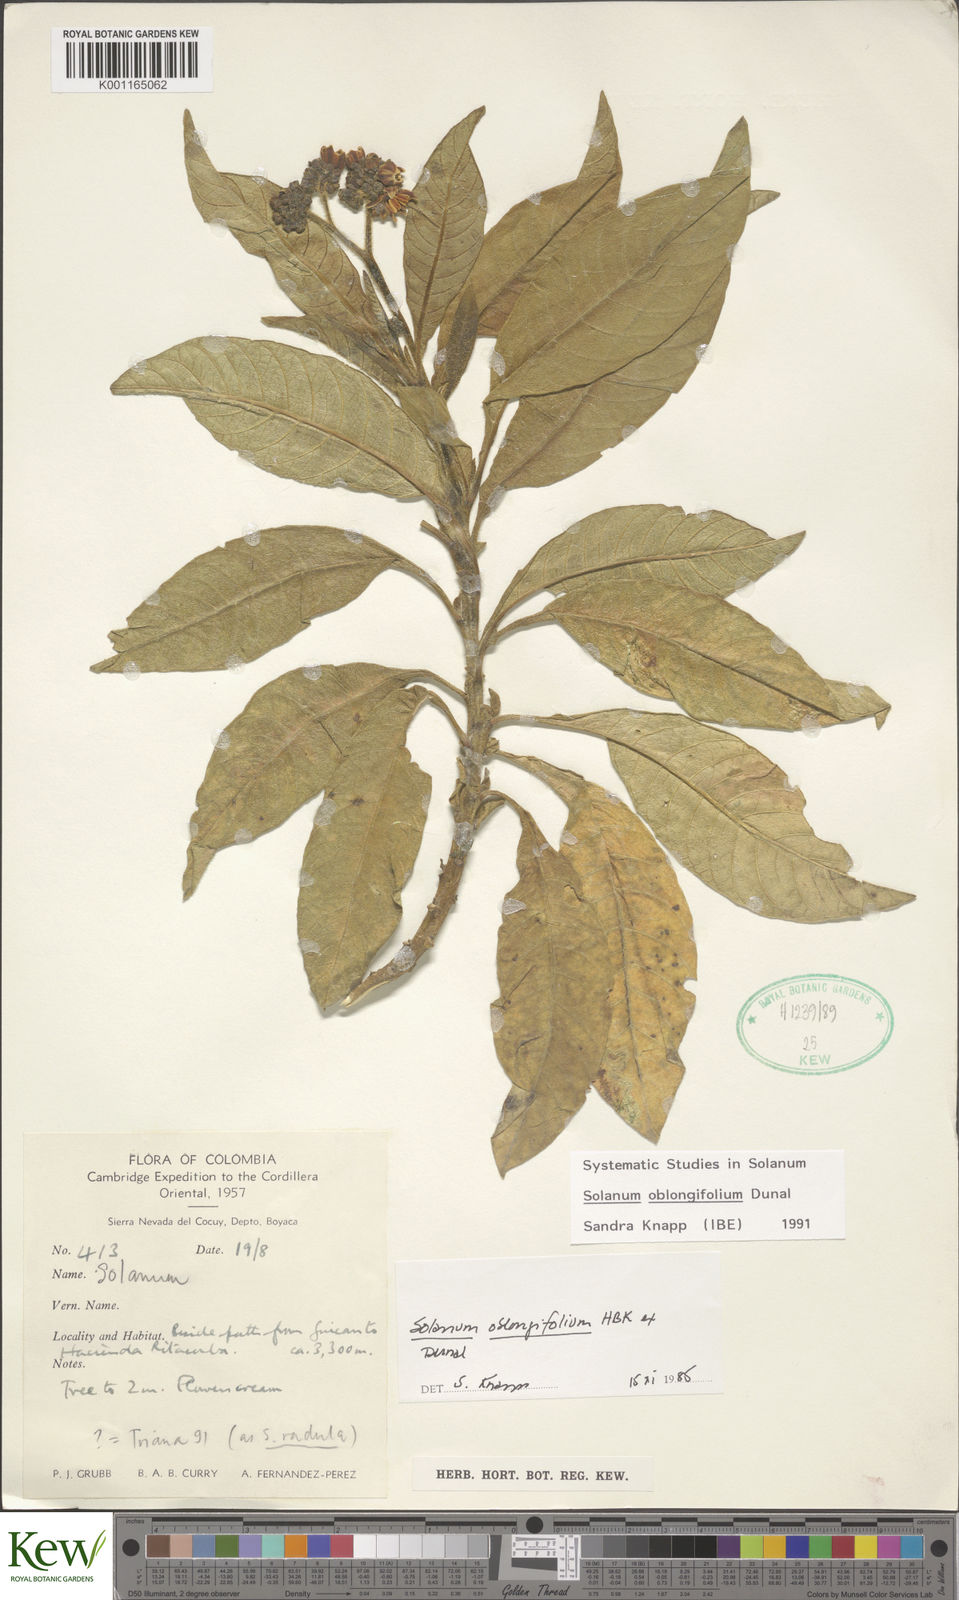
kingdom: Plantae
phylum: Tracheophyta
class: Magnoliopsida
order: Solanales
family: Solanaceae
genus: Solanum
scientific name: Solanum oblongifolium
